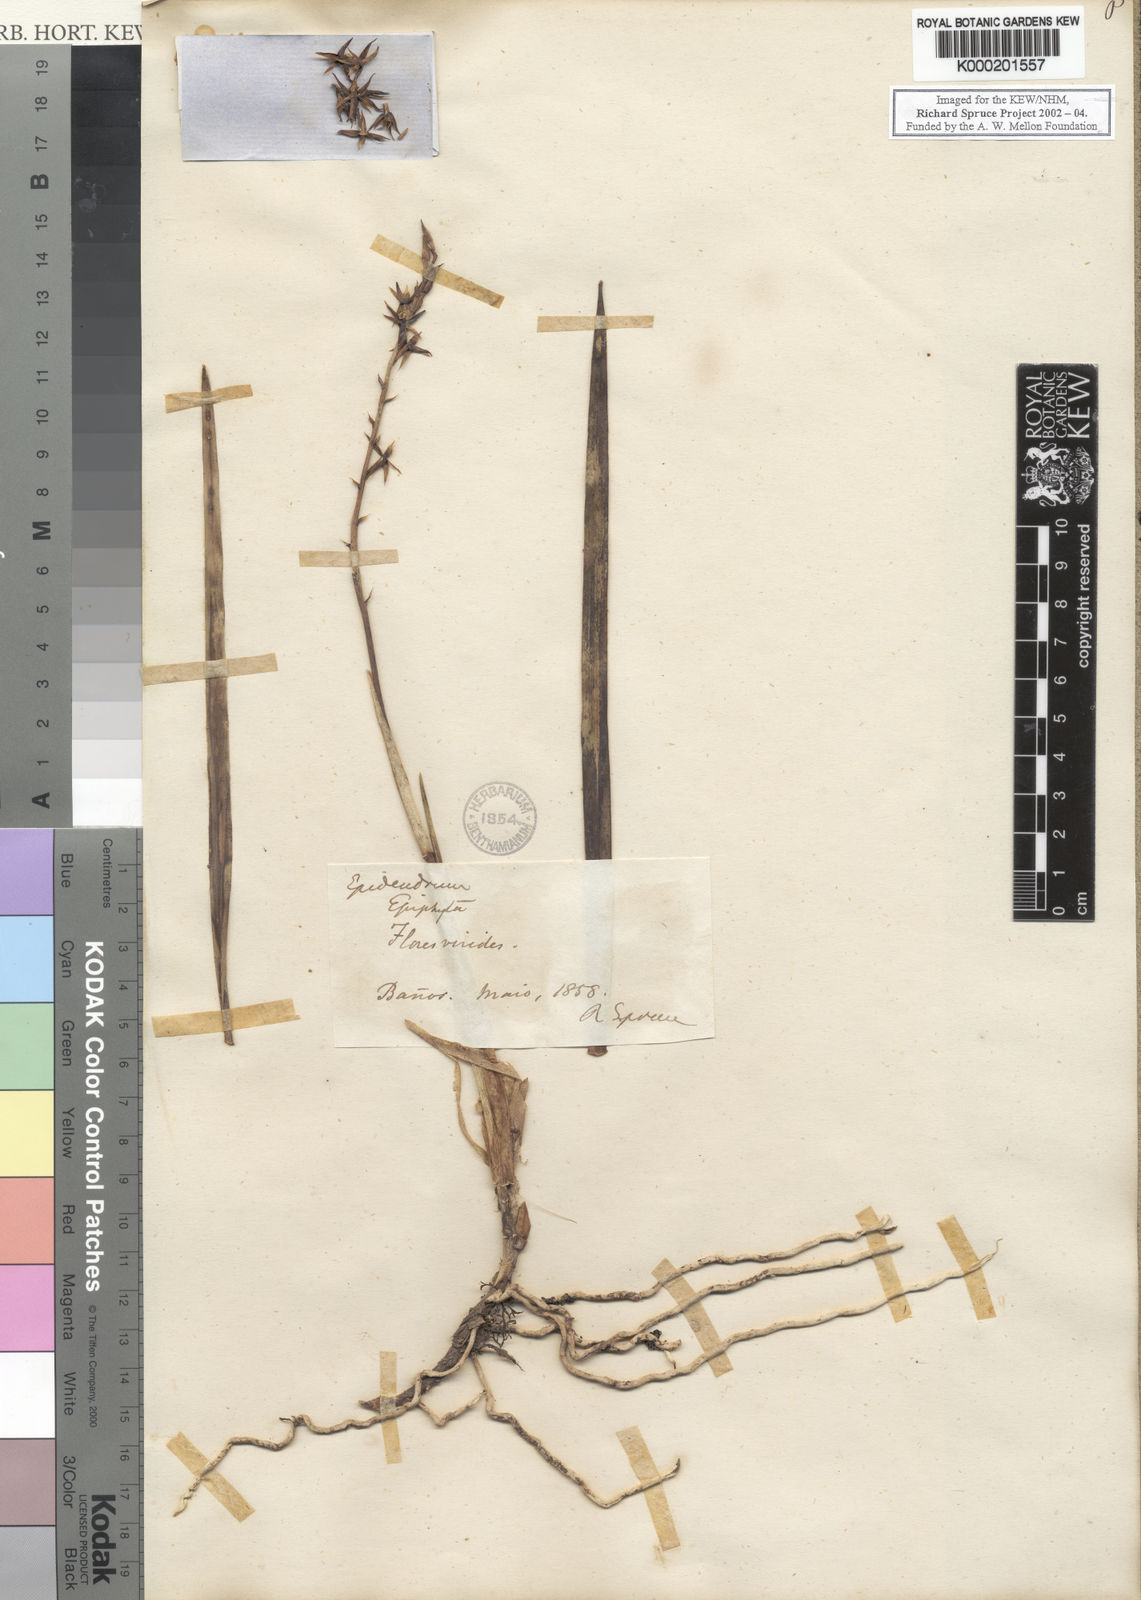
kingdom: Plantae
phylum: Tracheophyta
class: Liliopsida
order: Asparagales
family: Orchidaceae
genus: Prosthechea
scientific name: Prosthechea grammatoglossa
